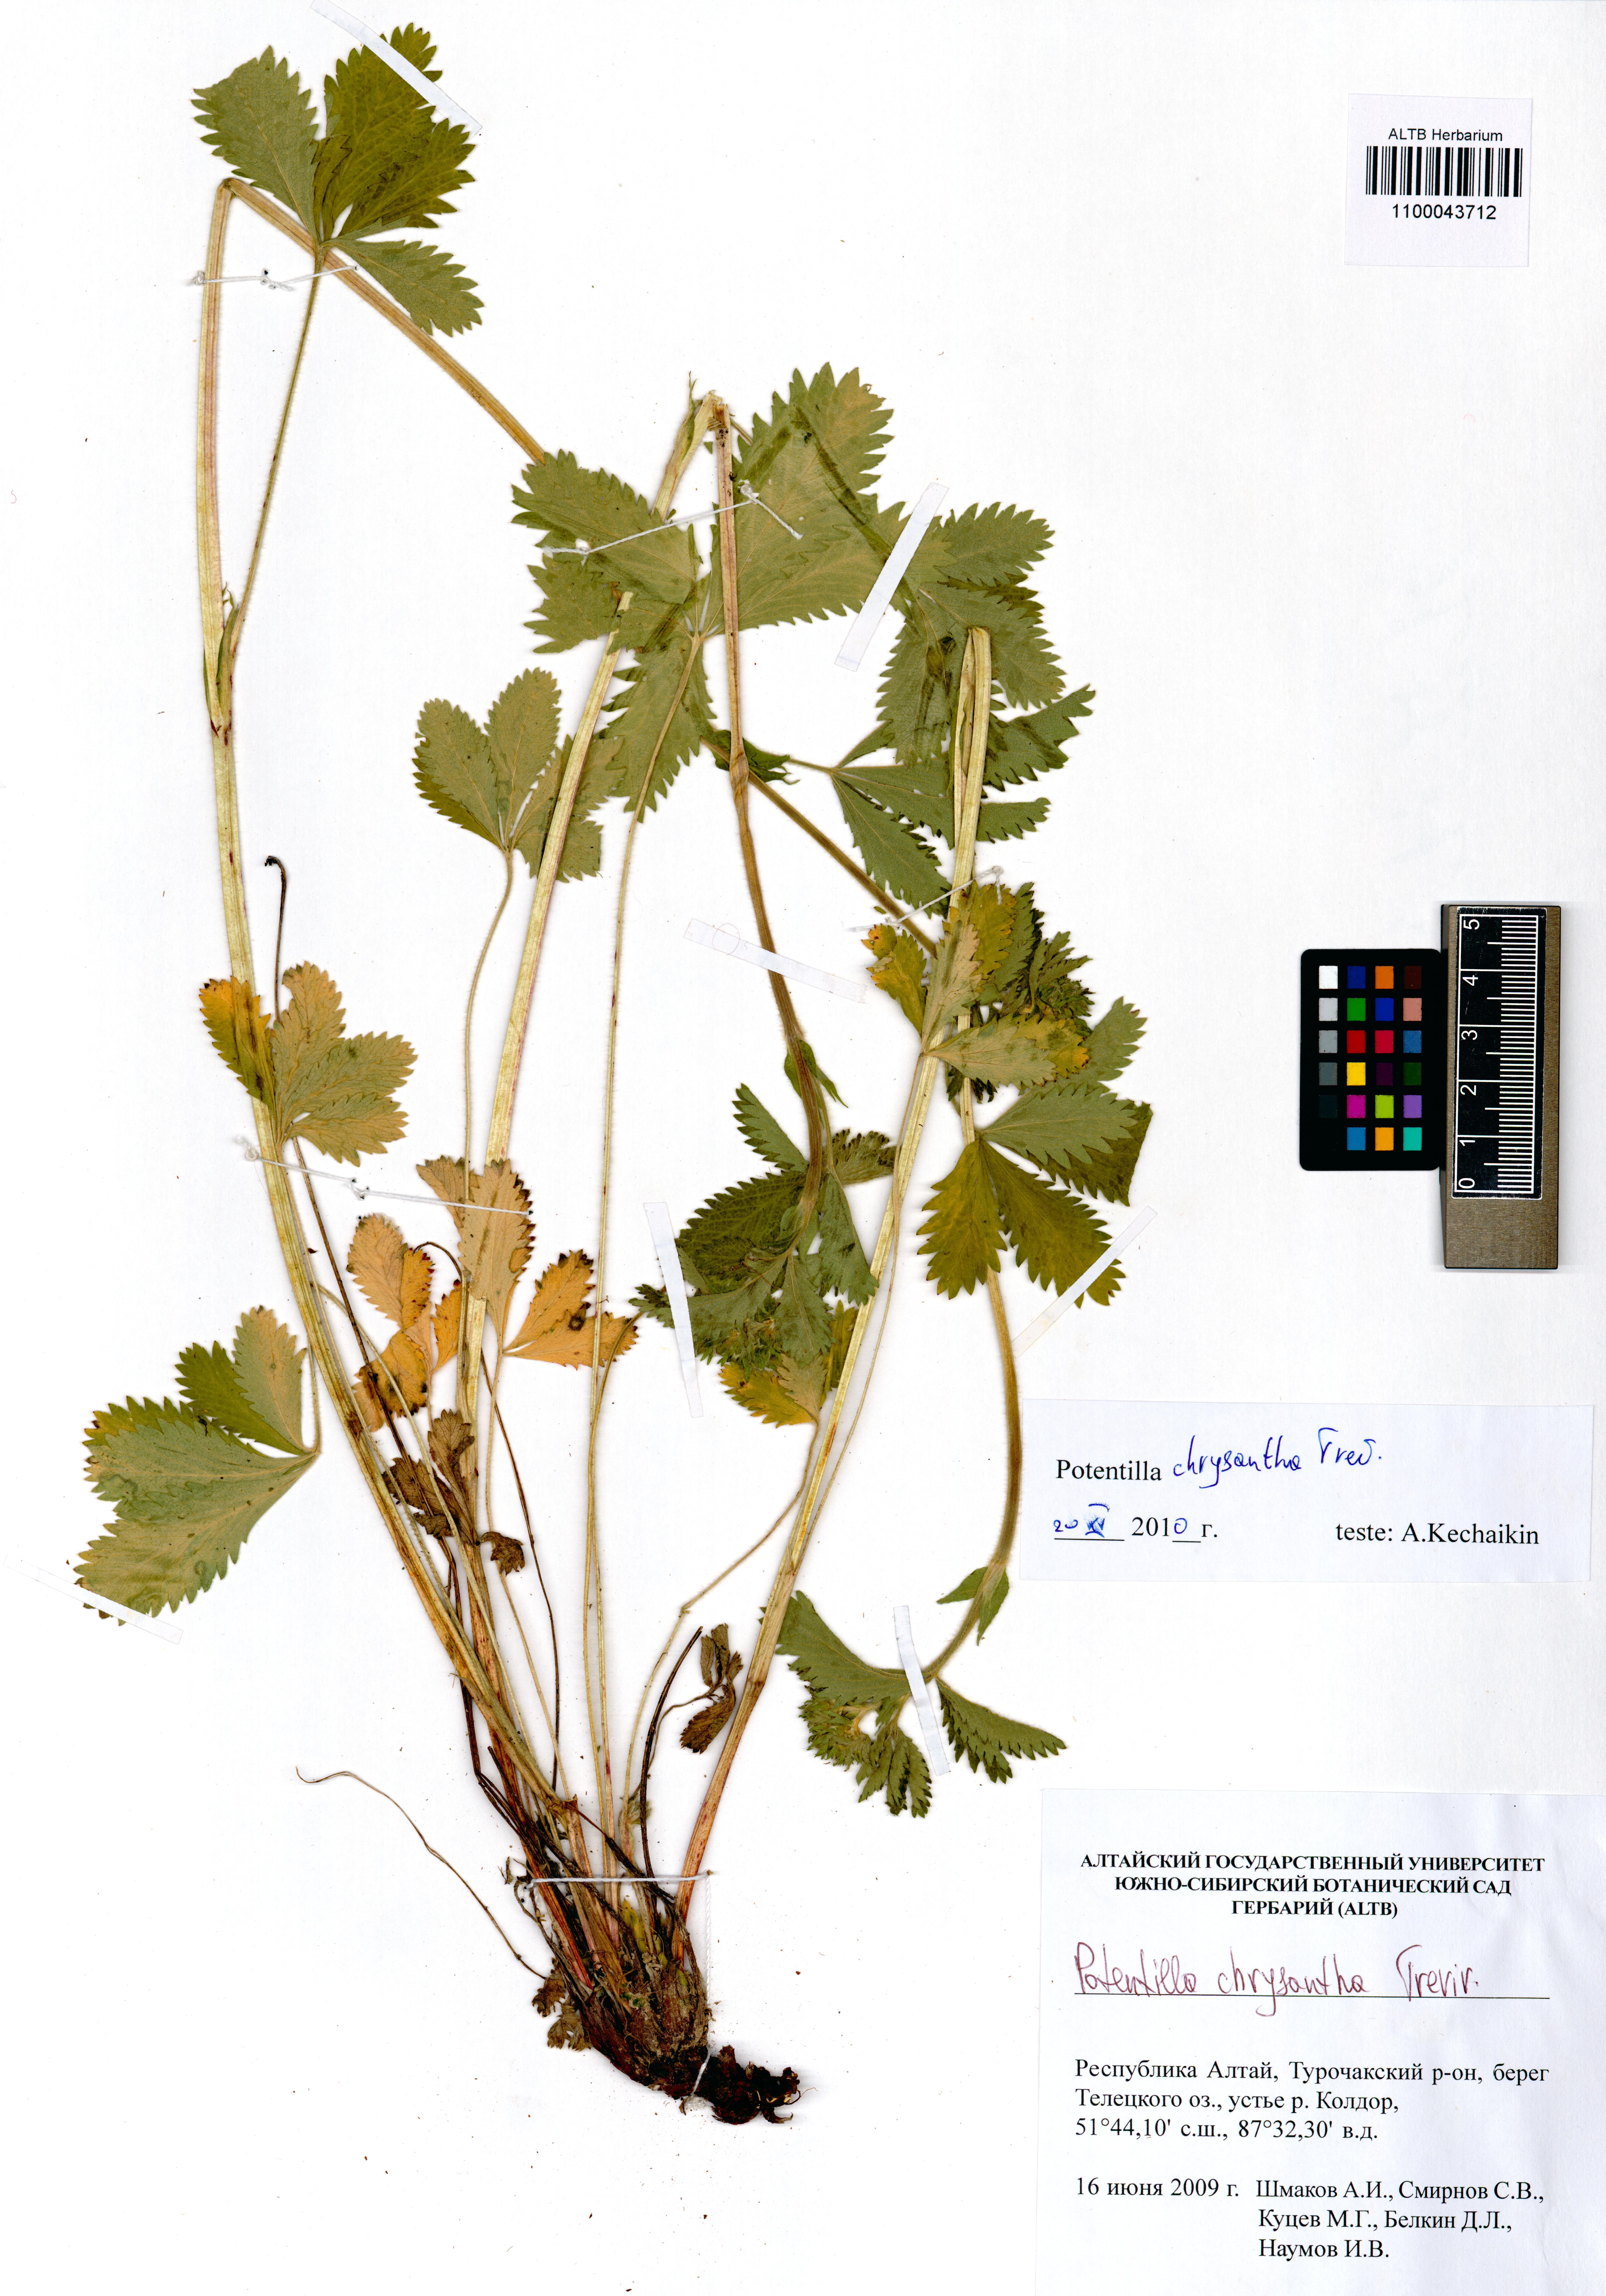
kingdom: Plantae
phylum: Tracheophyta
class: Magnoliopsida
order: Rosales
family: Rosaceae
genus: Potentilla
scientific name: Potentilla chrysantha
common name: Thuringian cinquefoil
